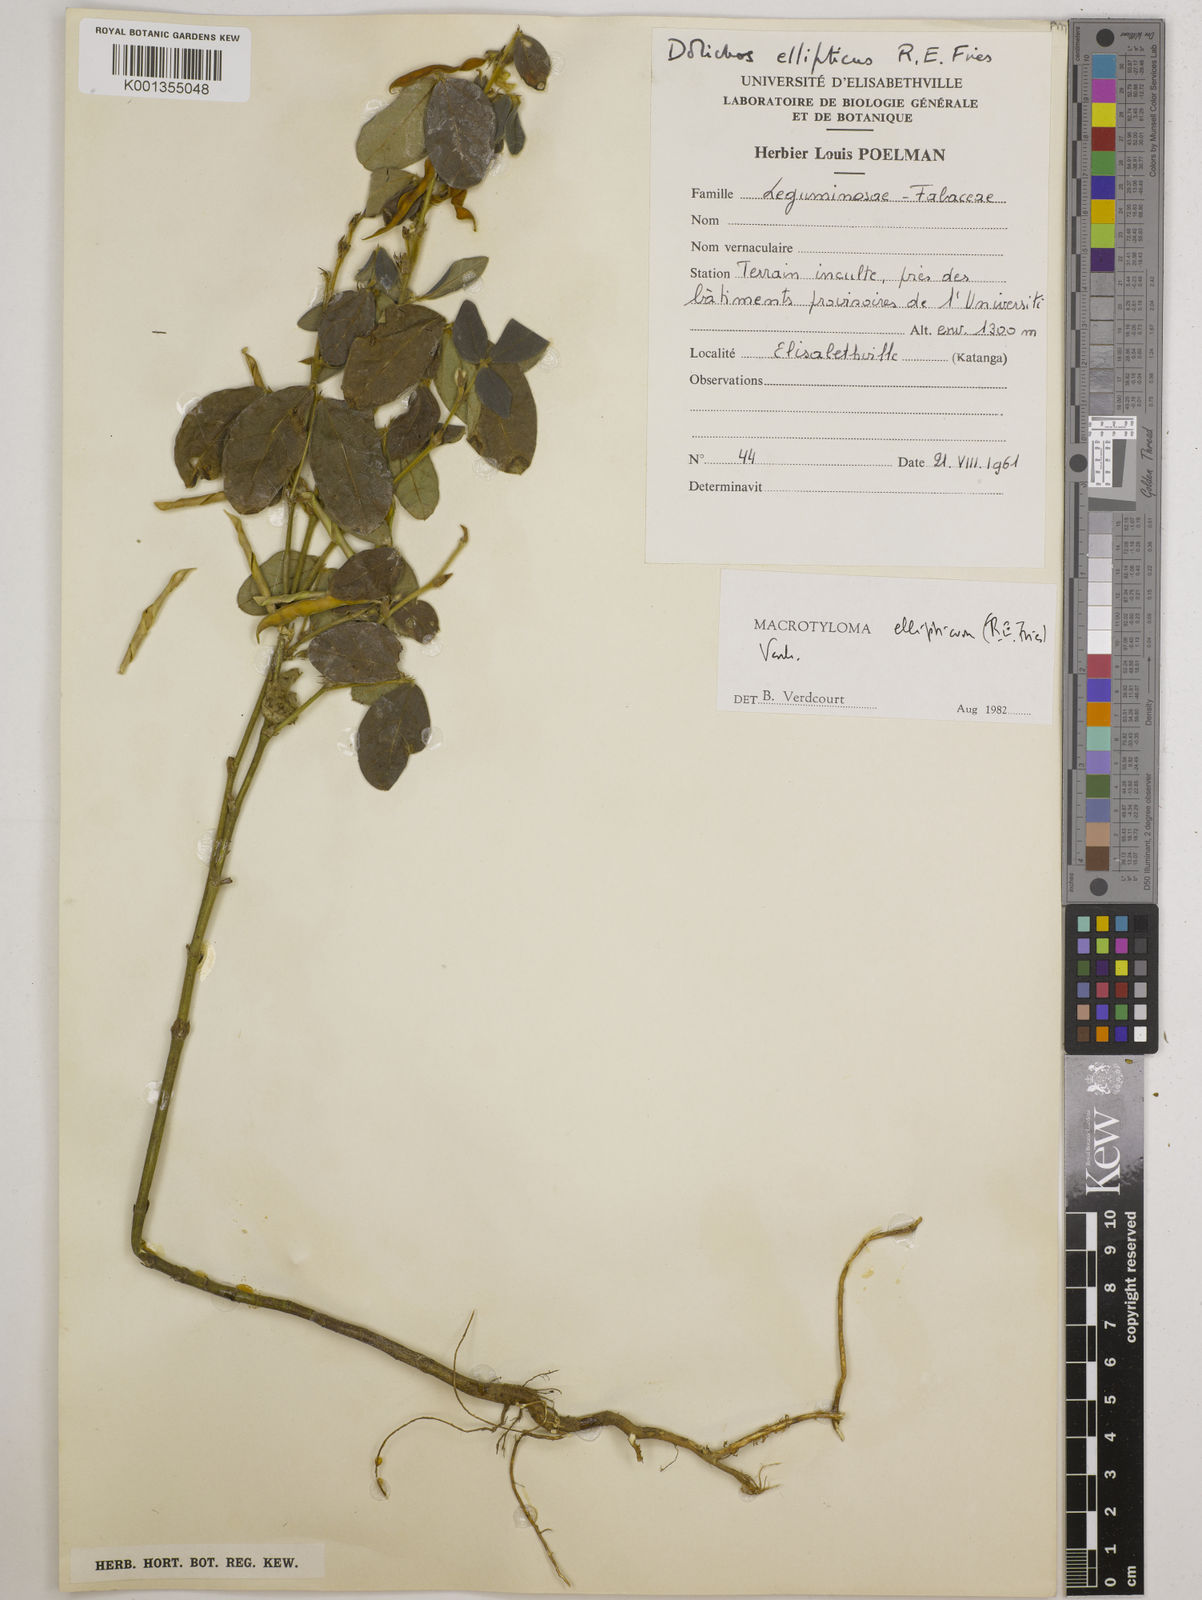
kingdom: Plantae
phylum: Tracheophyta
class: Magnoliopsida
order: Fabales
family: Fabaceae
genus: Macrotyloma
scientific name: Macrotyloma ellipticum
